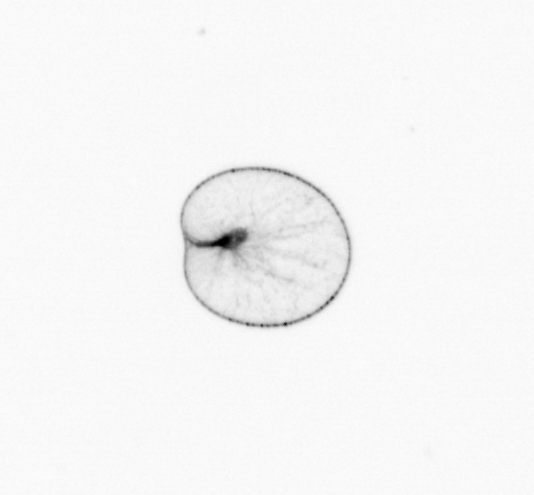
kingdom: Chromista
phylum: Myzozoa
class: Dinophyceae
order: Noctilucales
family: Noctilucaceae
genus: Noctiluca
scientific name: Noctiluca scintillans
